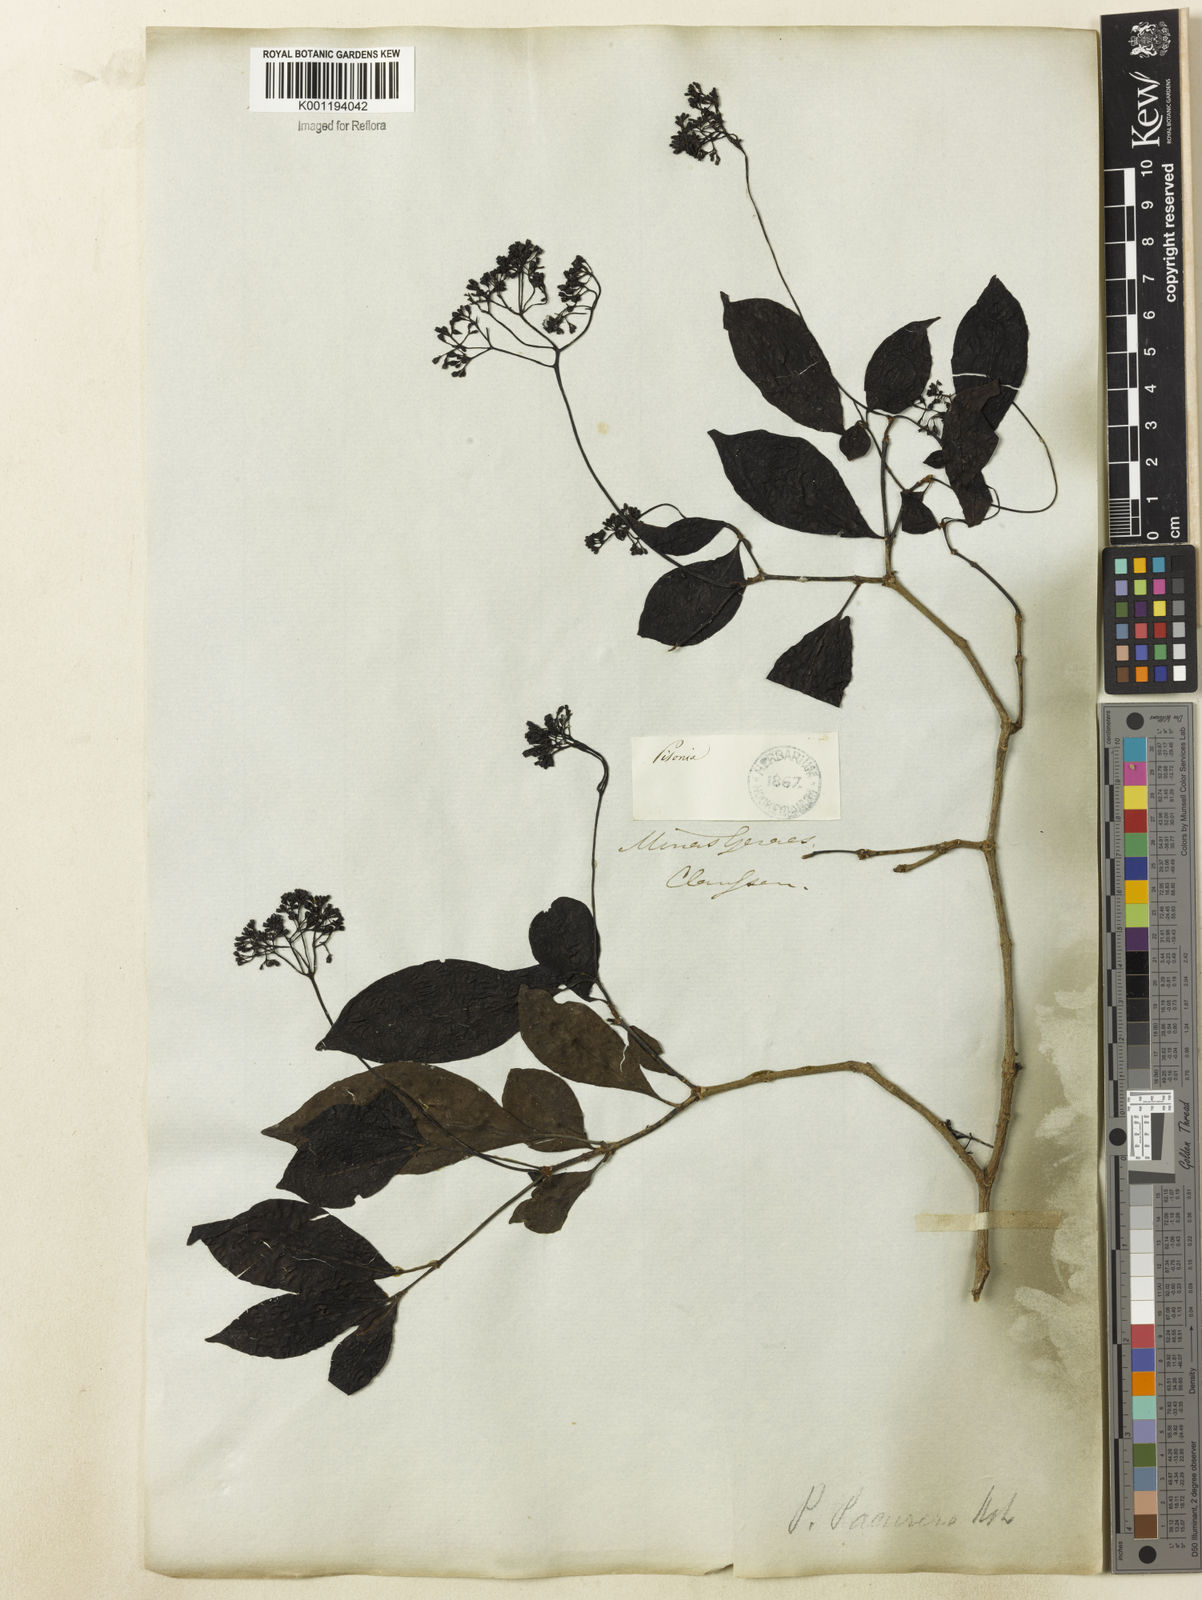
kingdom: Plantae
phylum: Tracheophyta
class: Magnoliopsida
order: Caryophyllales
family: Nyctaginaceae
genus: Guapira
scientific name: Guapira
